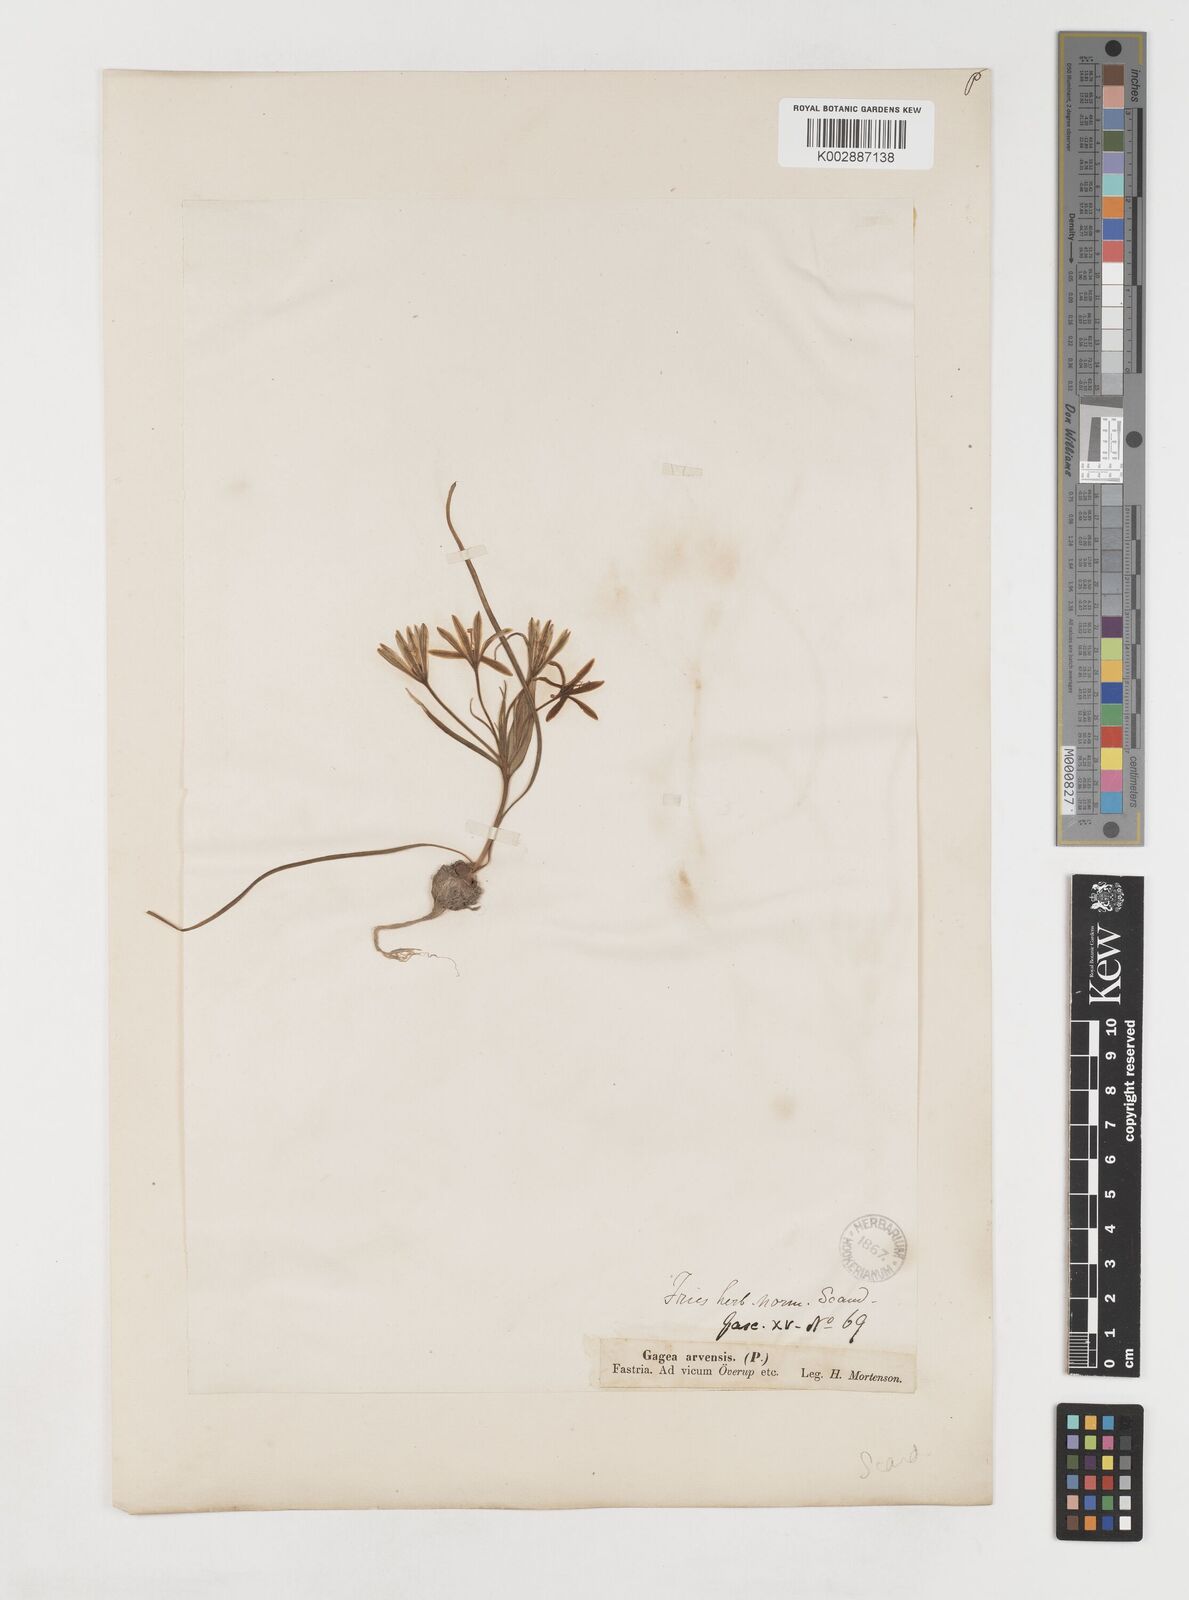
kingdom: Plantae
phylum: Tracheophyta
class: Liliopsida
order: Liliales
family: Liliaceae
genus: Gagea
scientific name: Gagea minima
